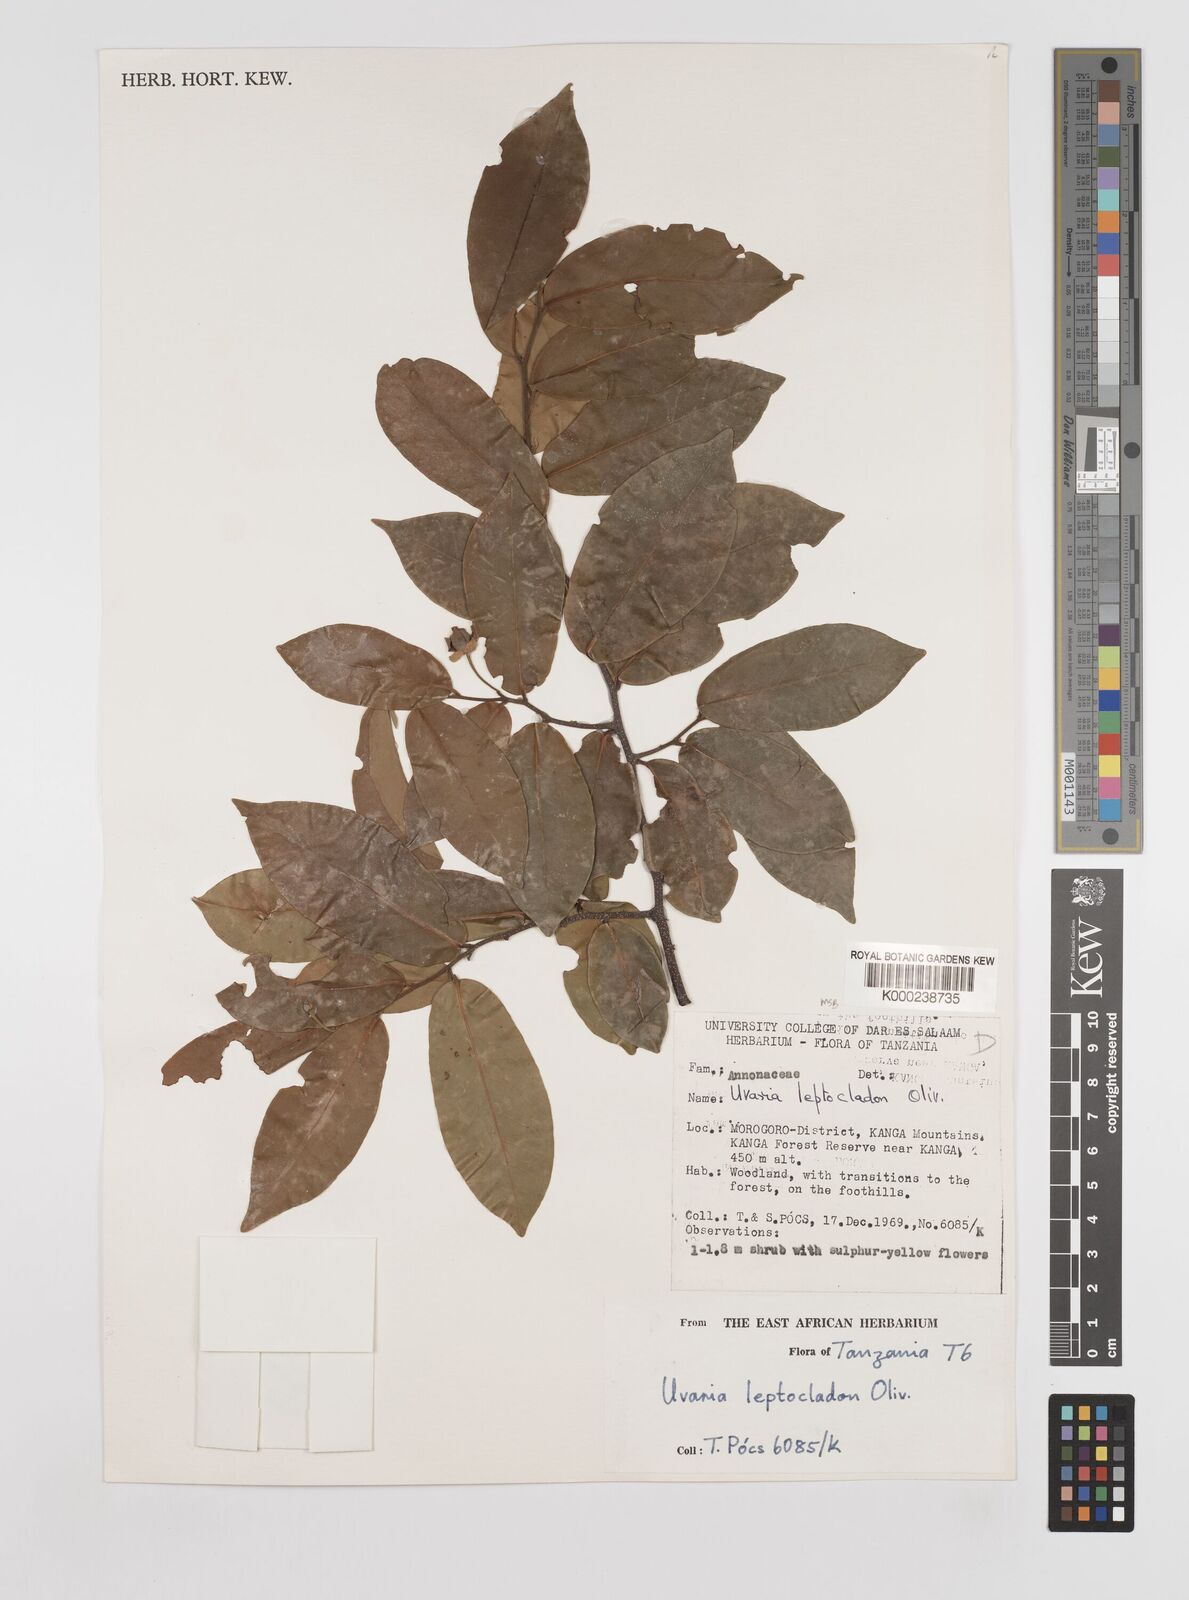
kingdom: Plantae
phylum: Tracheophyta
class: Magnoliopsida
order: Magnoliales
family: Annonaceae
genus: Uvaria
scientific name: Uvaria leptocladon
